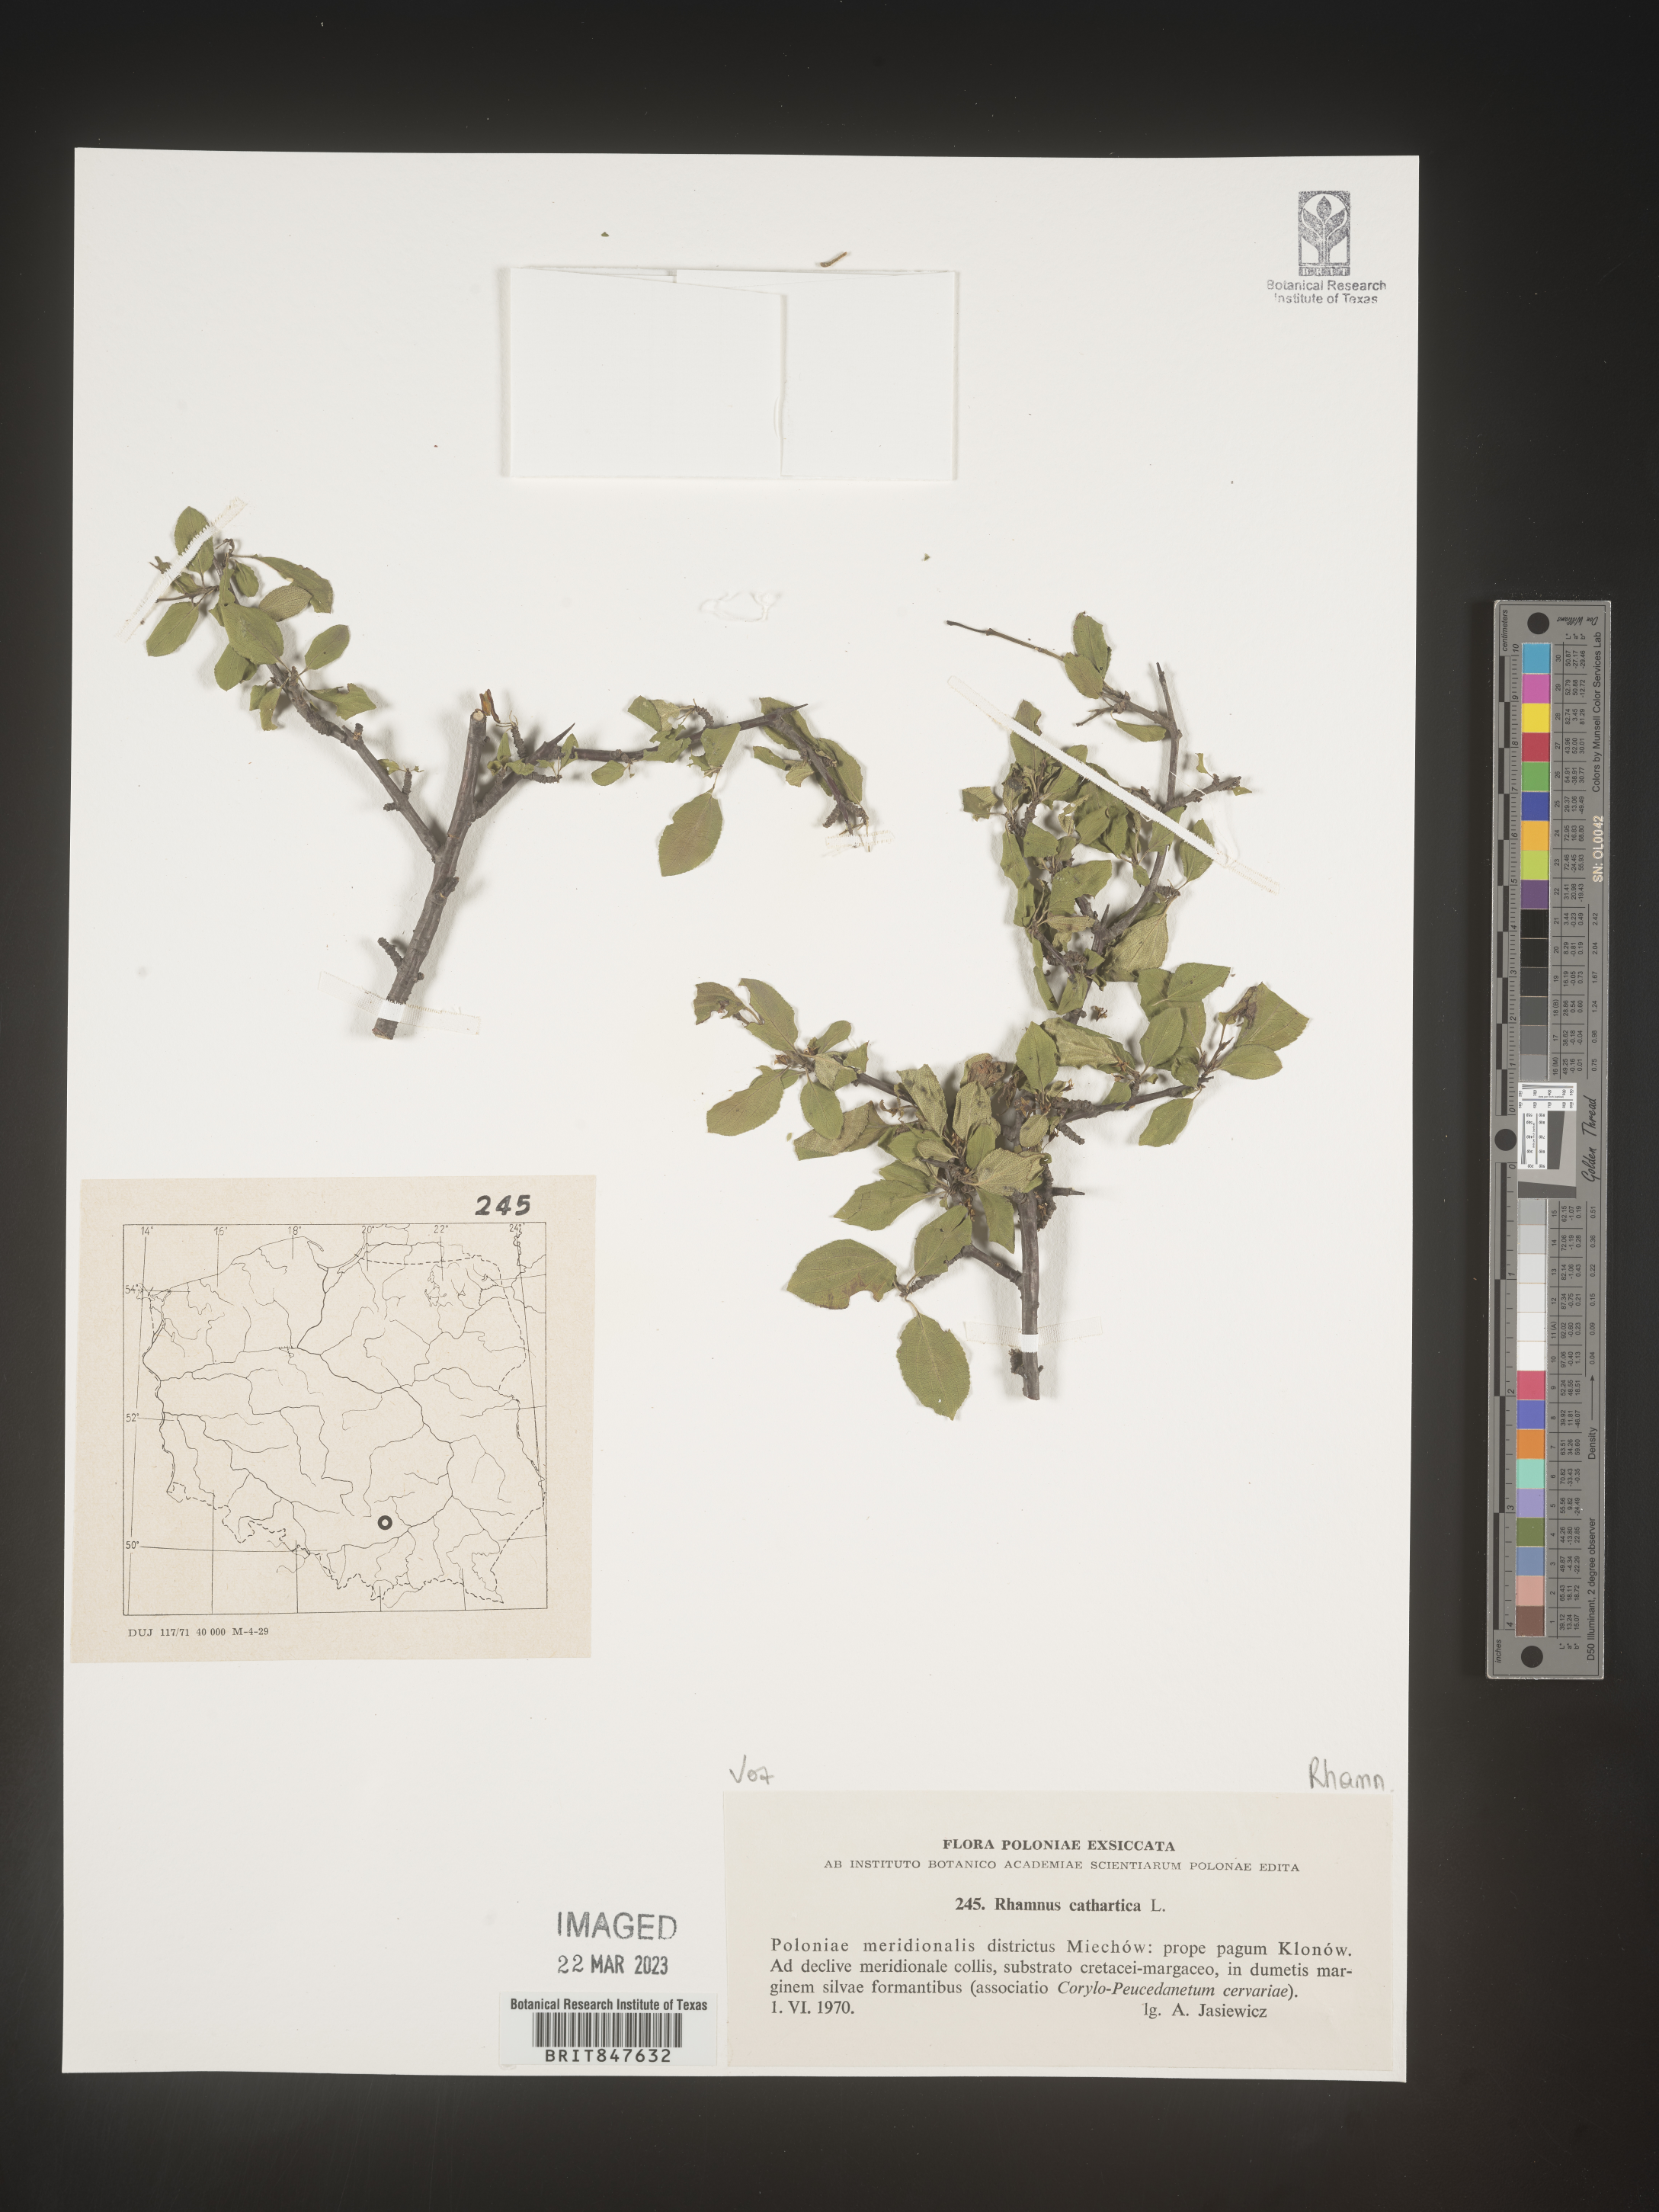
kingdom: Plantae
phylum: Tracheophyta
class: Magnoliopsida
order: Rosales
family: Rhamnaceae
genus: Rhamnus
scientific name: Rhamnus cathartica
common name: Common buckthorn
